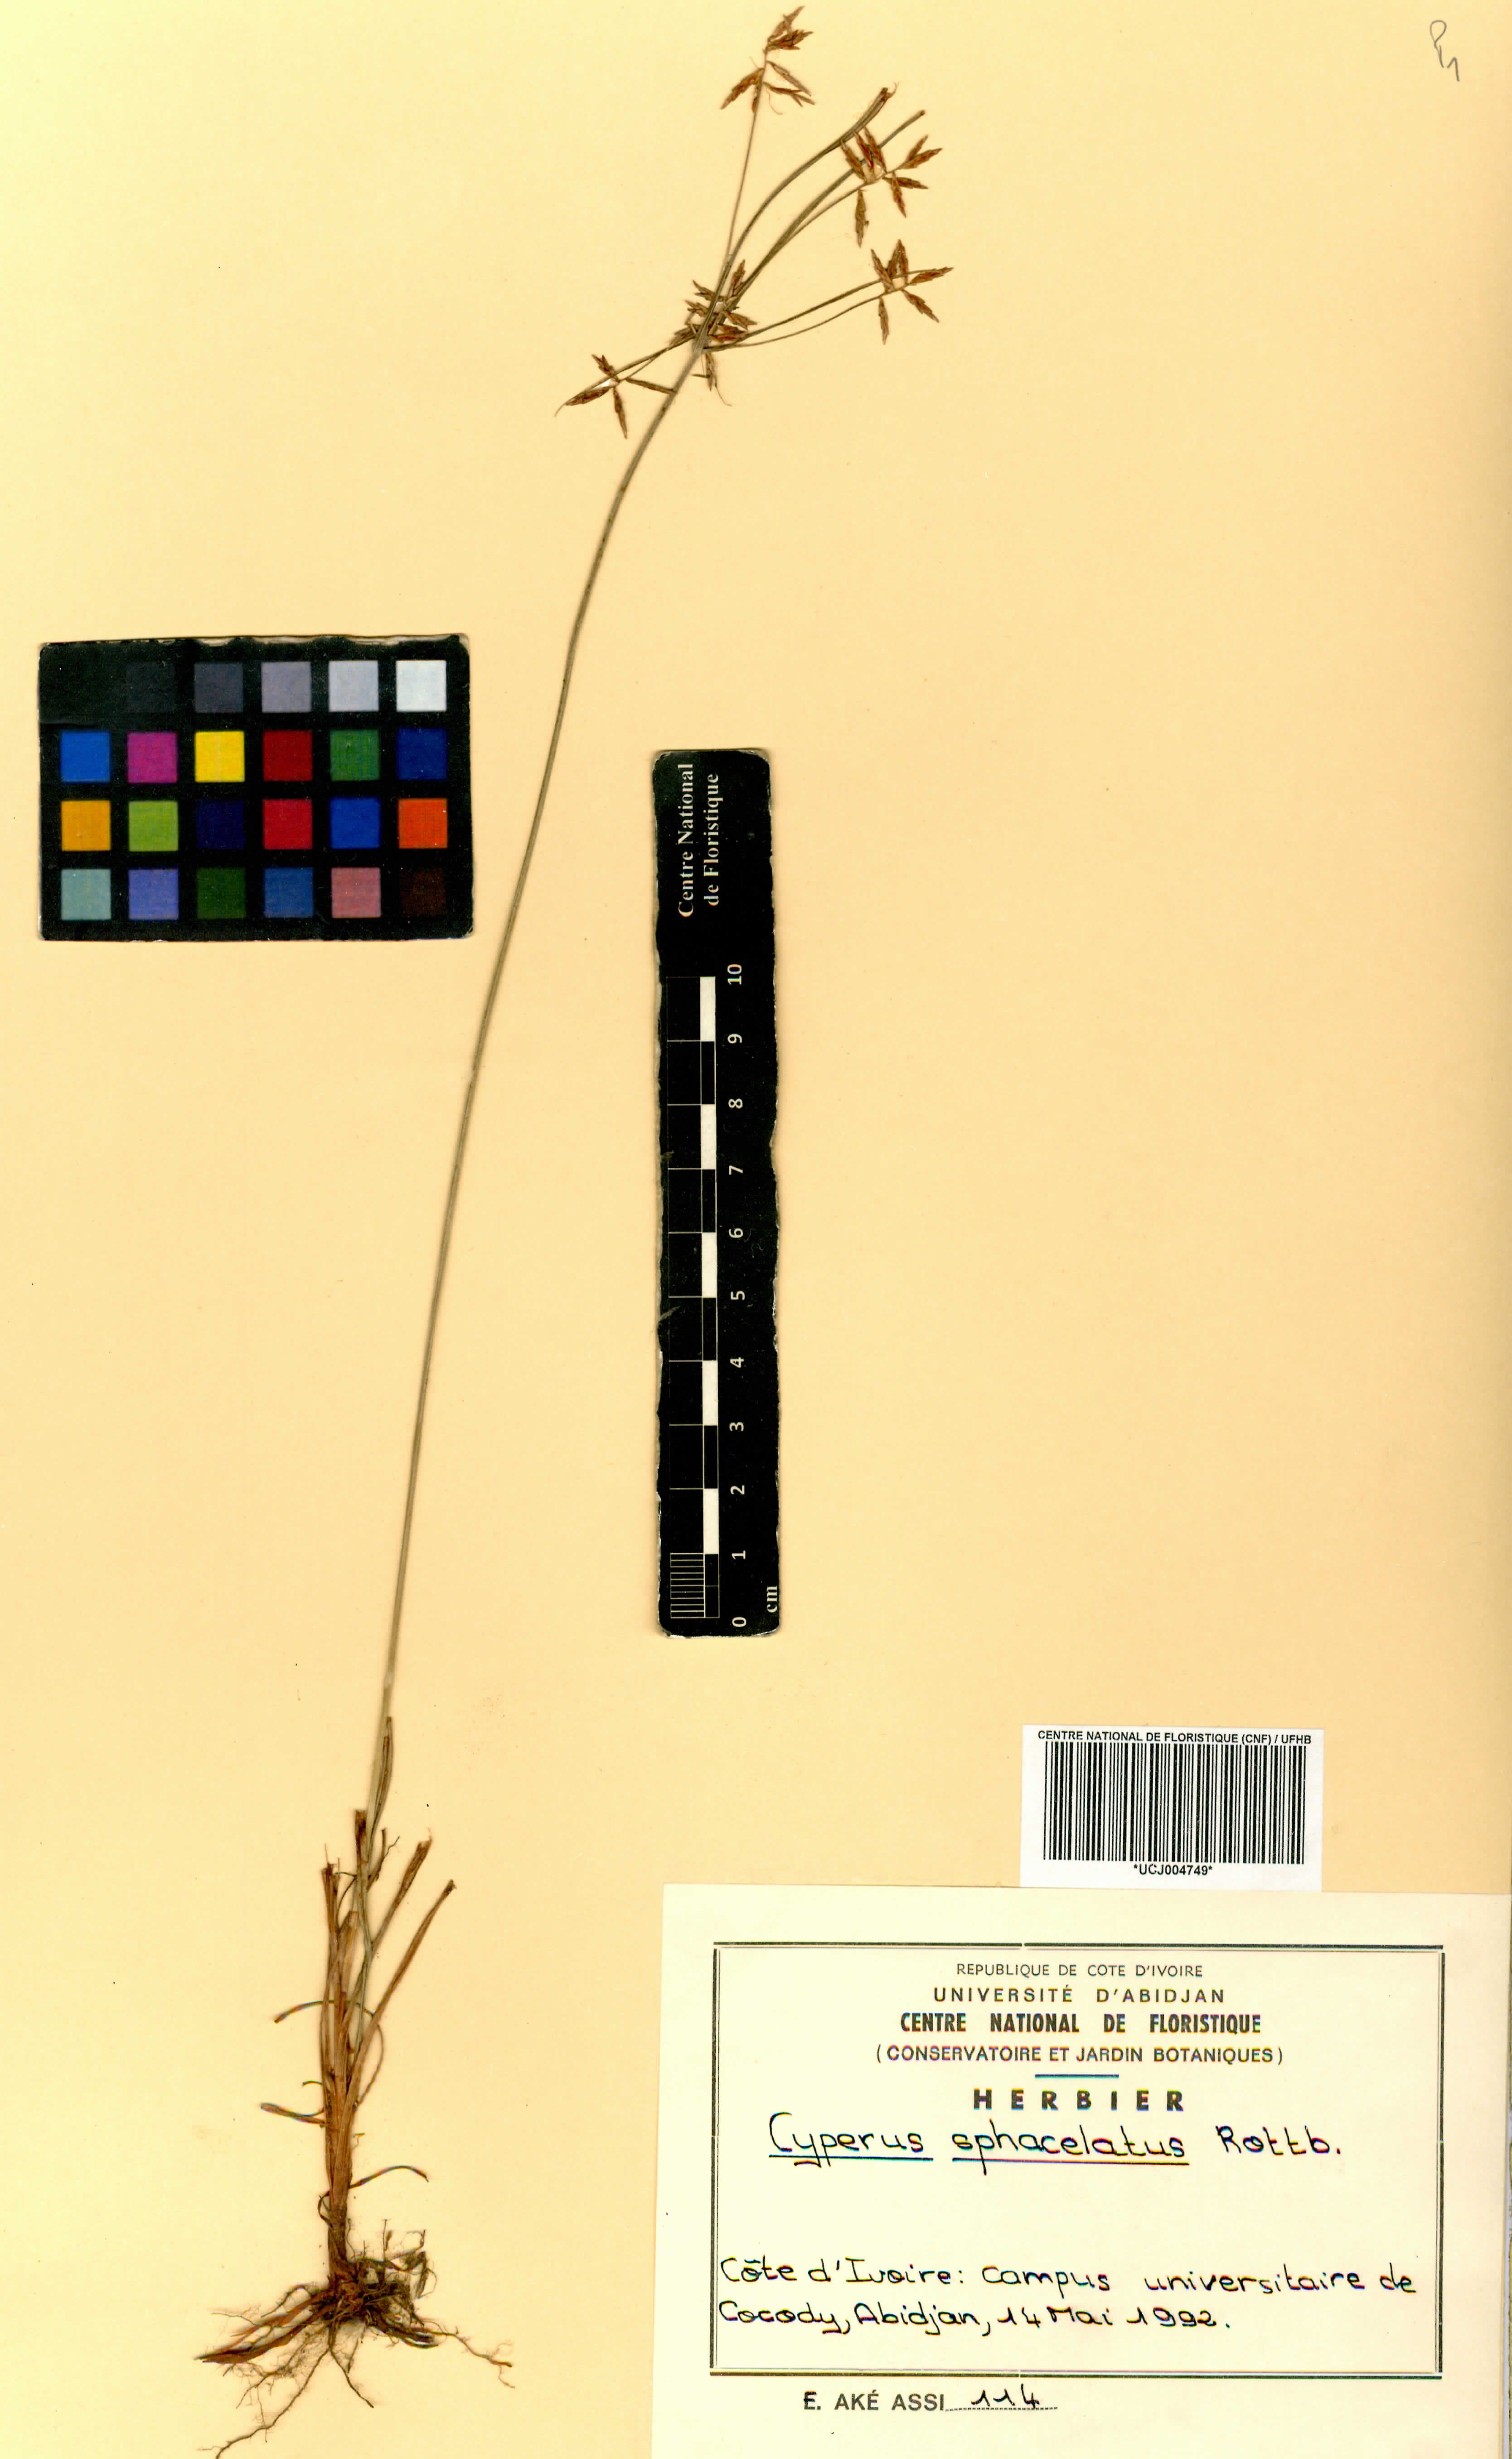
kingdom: Plantae
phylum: Tracheophyta
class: Liliopsida
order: Poales
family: Cyperaceae
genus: Cyperus
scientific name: Cyperus sphacelatus
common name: Roadside flatsedge
